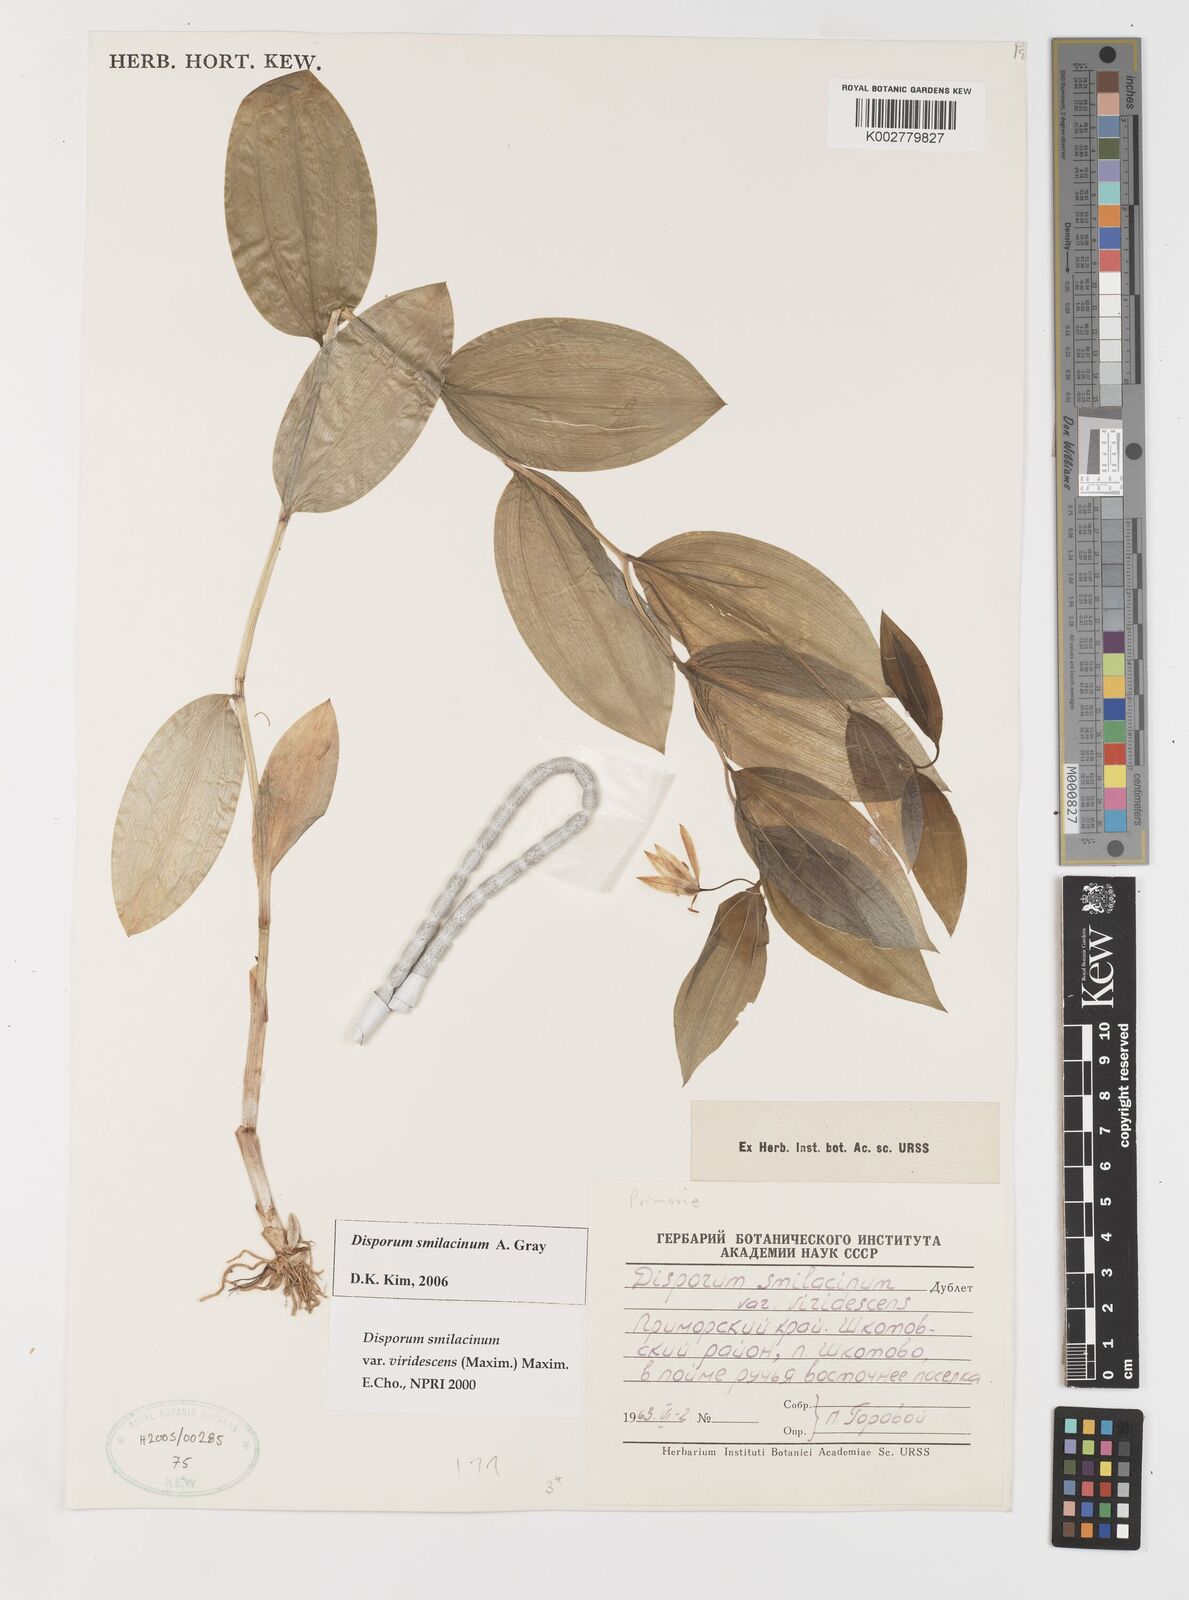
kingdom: Plantae
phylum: Tracheophyta
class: Liliopsida
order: Liliales
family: Colchicaceae
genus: Disporum
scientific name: Disporum smilacinum
